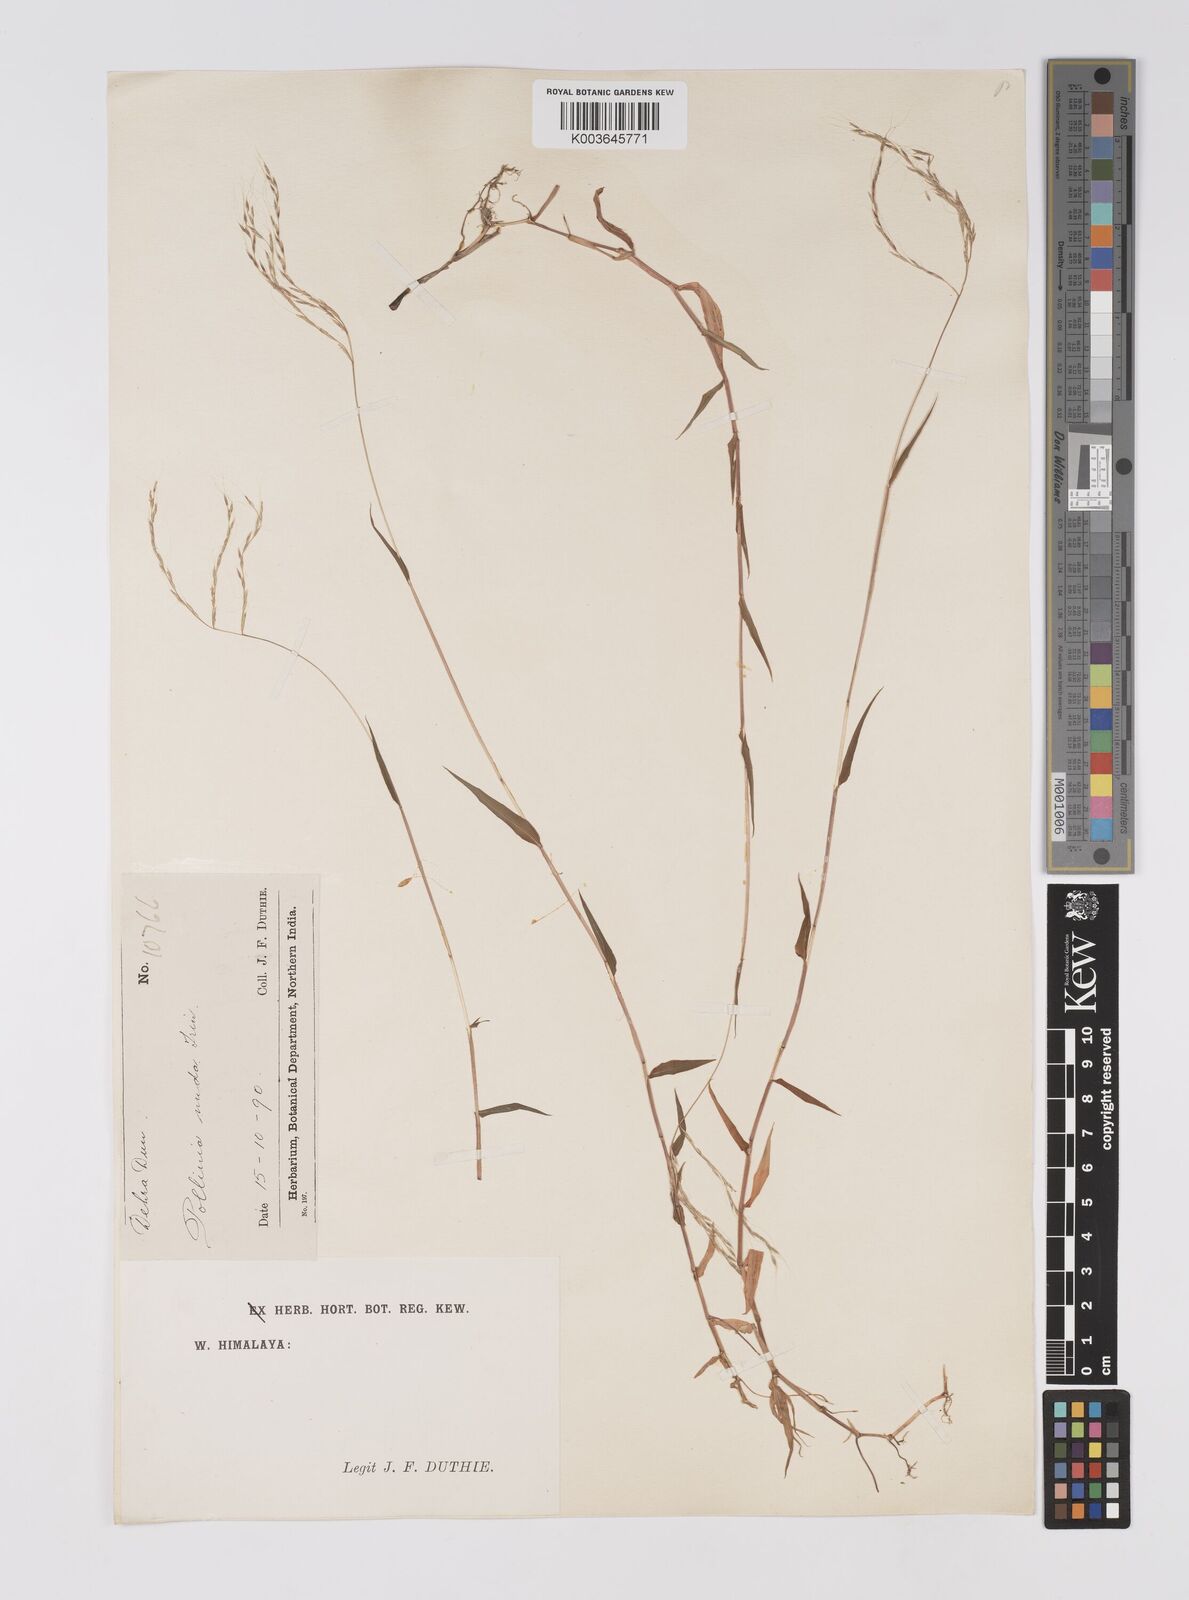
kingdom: Plantae
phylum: Tracheophyta
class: Liliopsida
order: Poales
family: Poaceae
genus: Microstegium
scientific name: Microstegium nudum
